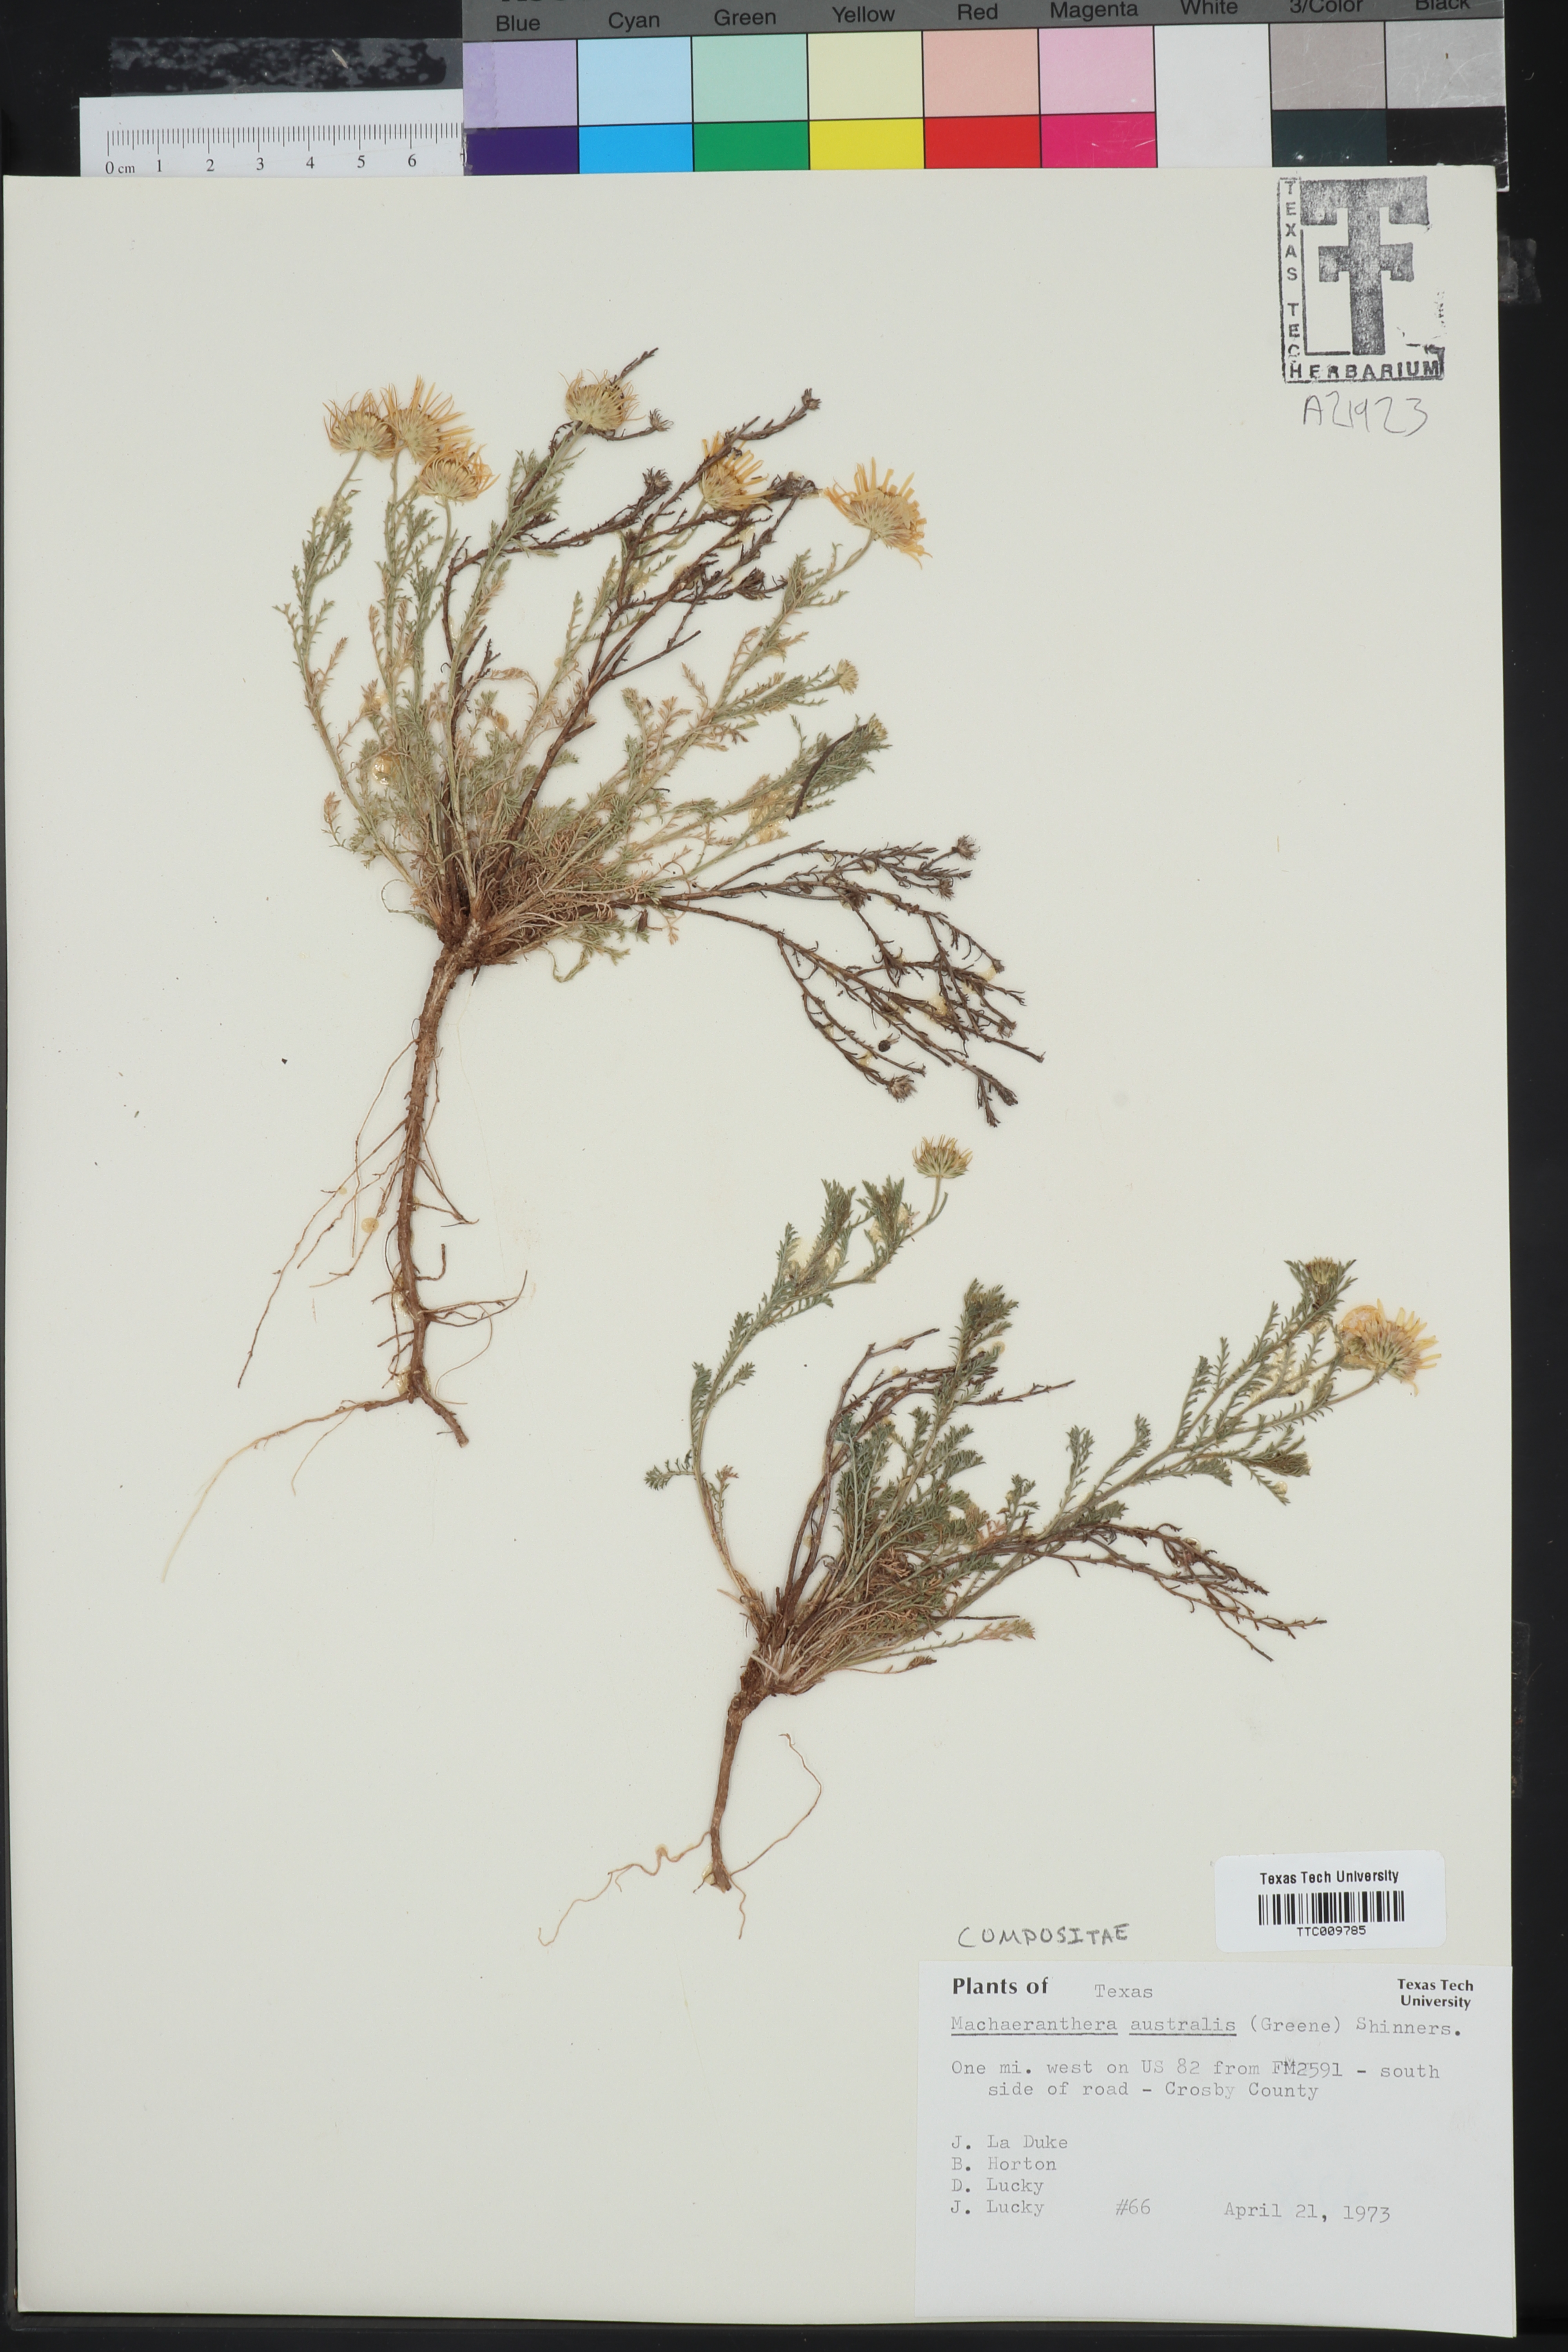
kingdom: Plantae
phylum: Tracheophyta
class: Magnoliopsida
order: Asterales
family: Asteraceae
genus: Xanthisma
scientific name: Xanthisma spinulosum
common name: Spiny goldenweed
